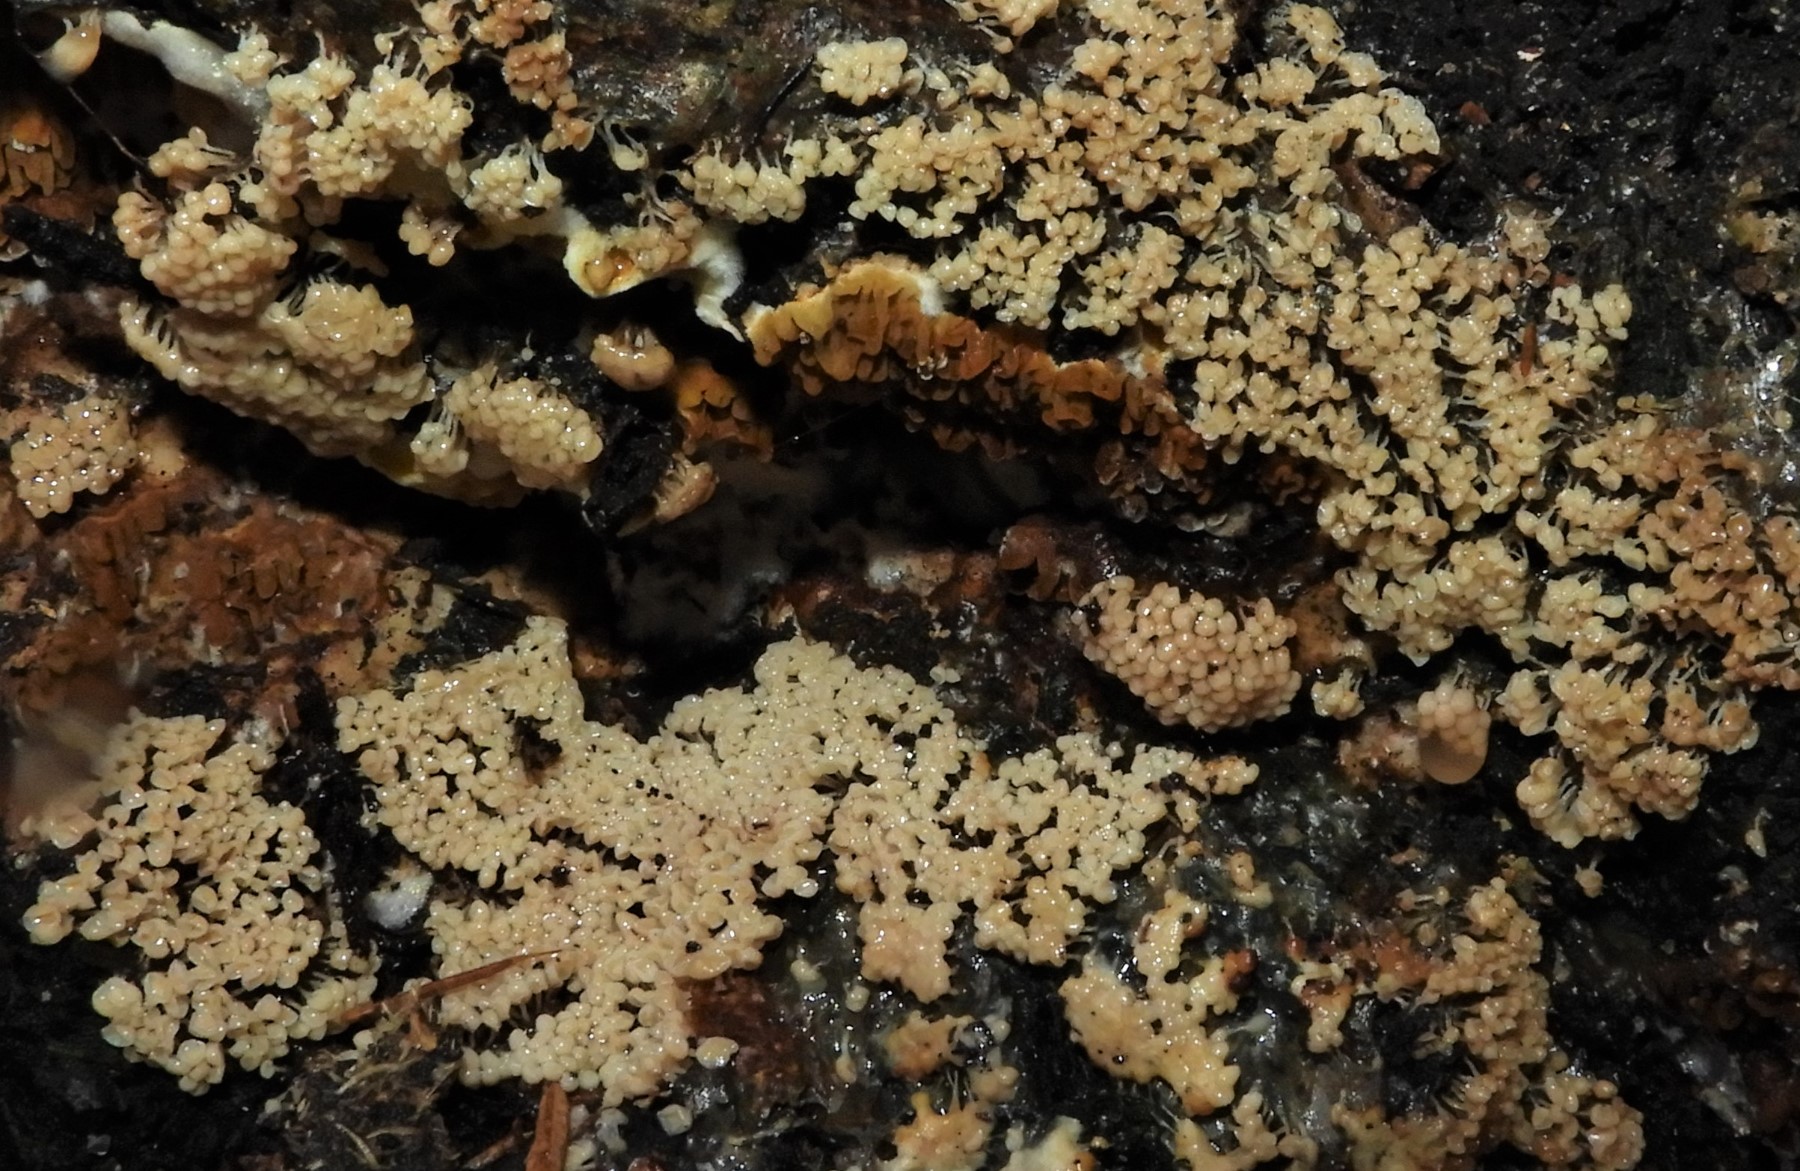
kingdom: Fungi
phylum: Basidiomycota
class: Agaricomycetes
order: Boletales
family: Serpulaceae
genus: Serpula
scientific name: Serpula himantioides
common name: tyndkødet hussvamp
